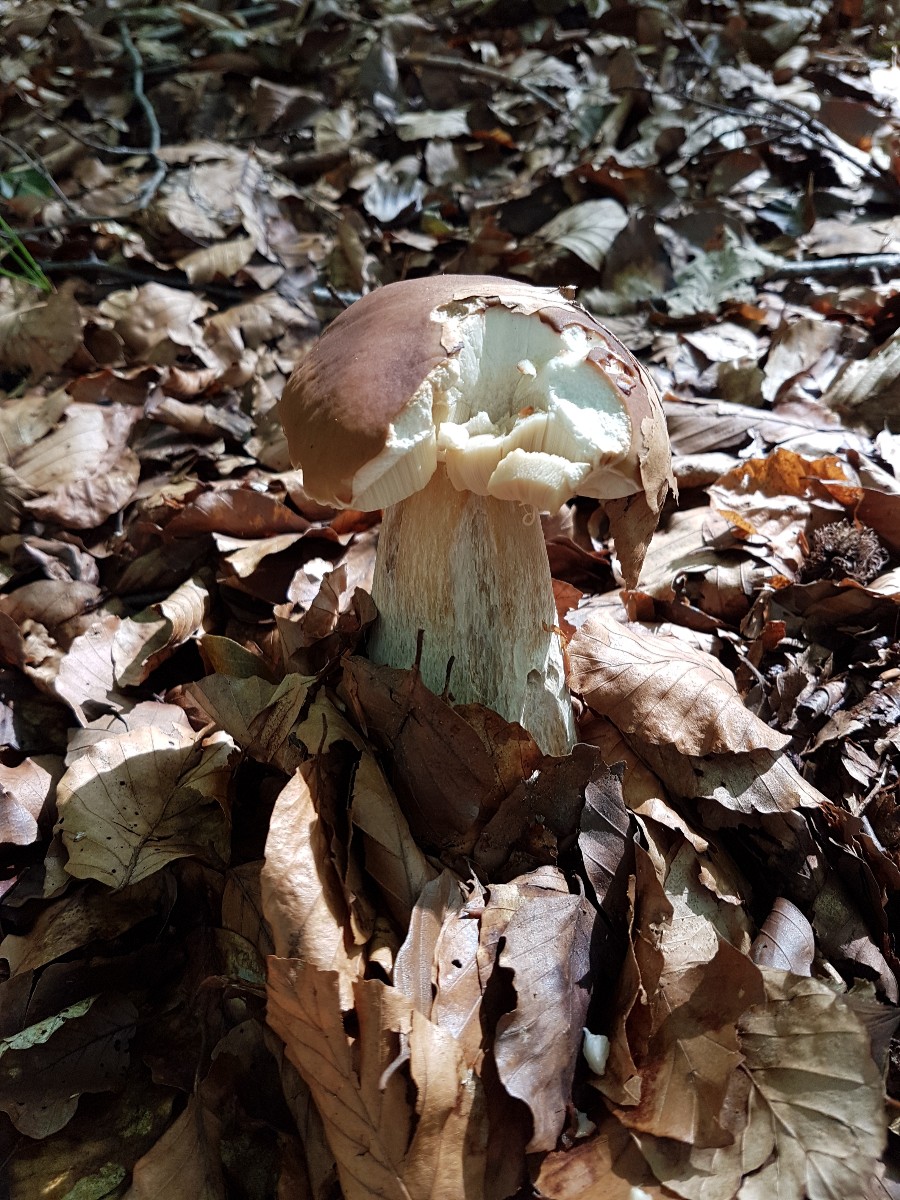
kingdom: Fungi
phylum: Basidiomycota
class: Agaricomycetes
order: Boletales
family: Boletaceae
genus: Boletus
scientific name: Boletus edulis
